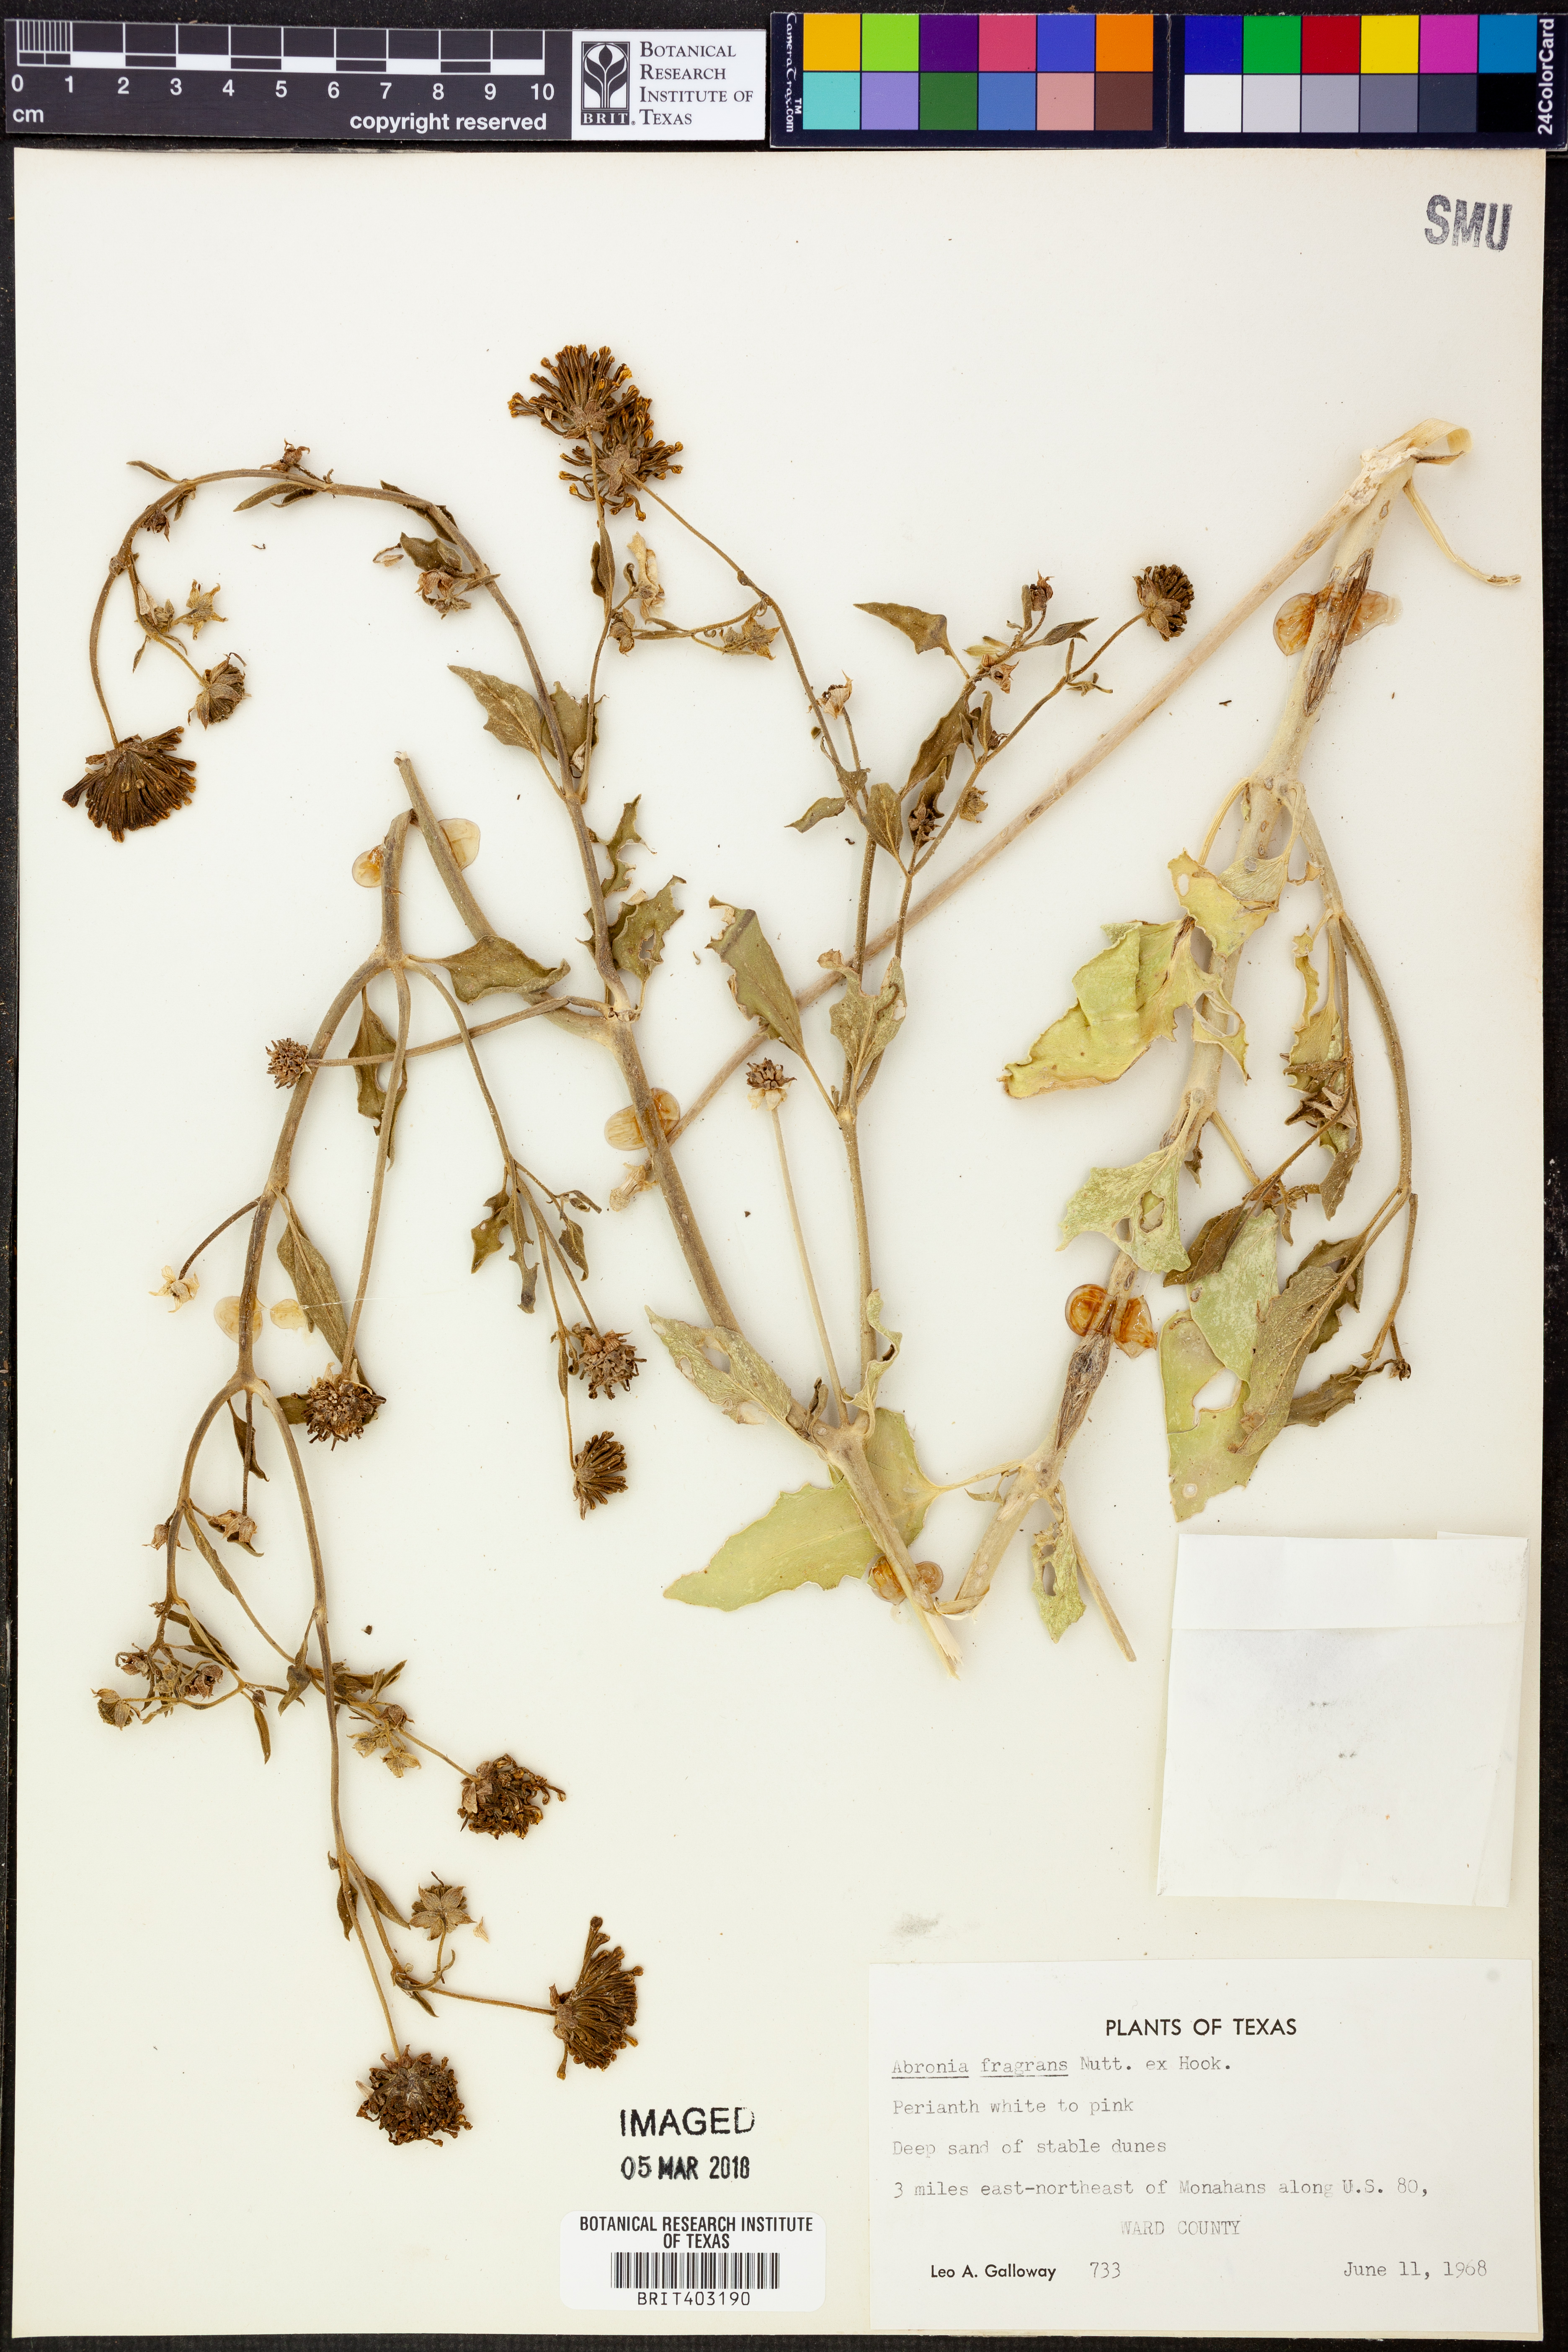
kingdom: Plantae
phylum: Tracheophyta
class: Magnoliopsida
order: Caryophyllales
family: Nyctaginaceae
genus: Abronia
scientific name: Abronia fragrans
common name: Fragrant sand-verbena
